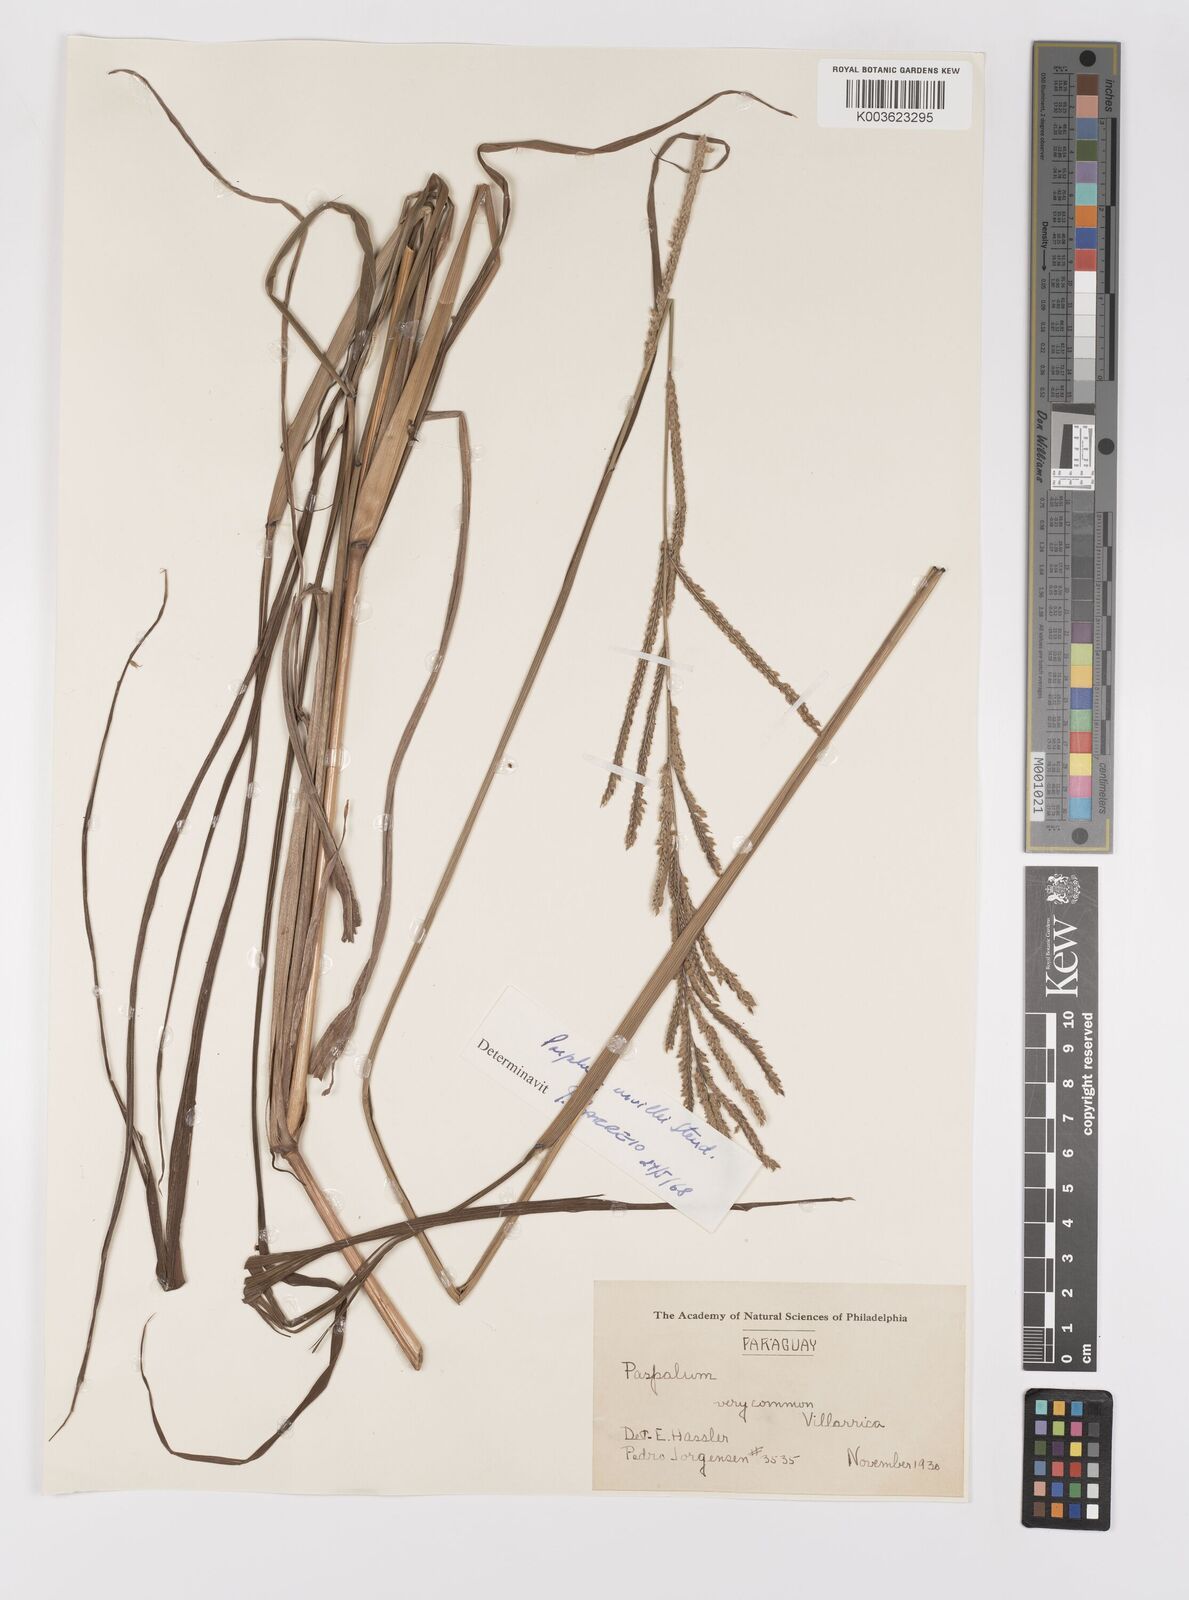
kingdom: Plantae
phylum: Tracheophyta
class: Liliopsida
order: Poales
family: Poaceae
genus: Paspalum
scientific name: Paspalum urvillei
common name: Vasey's grass
